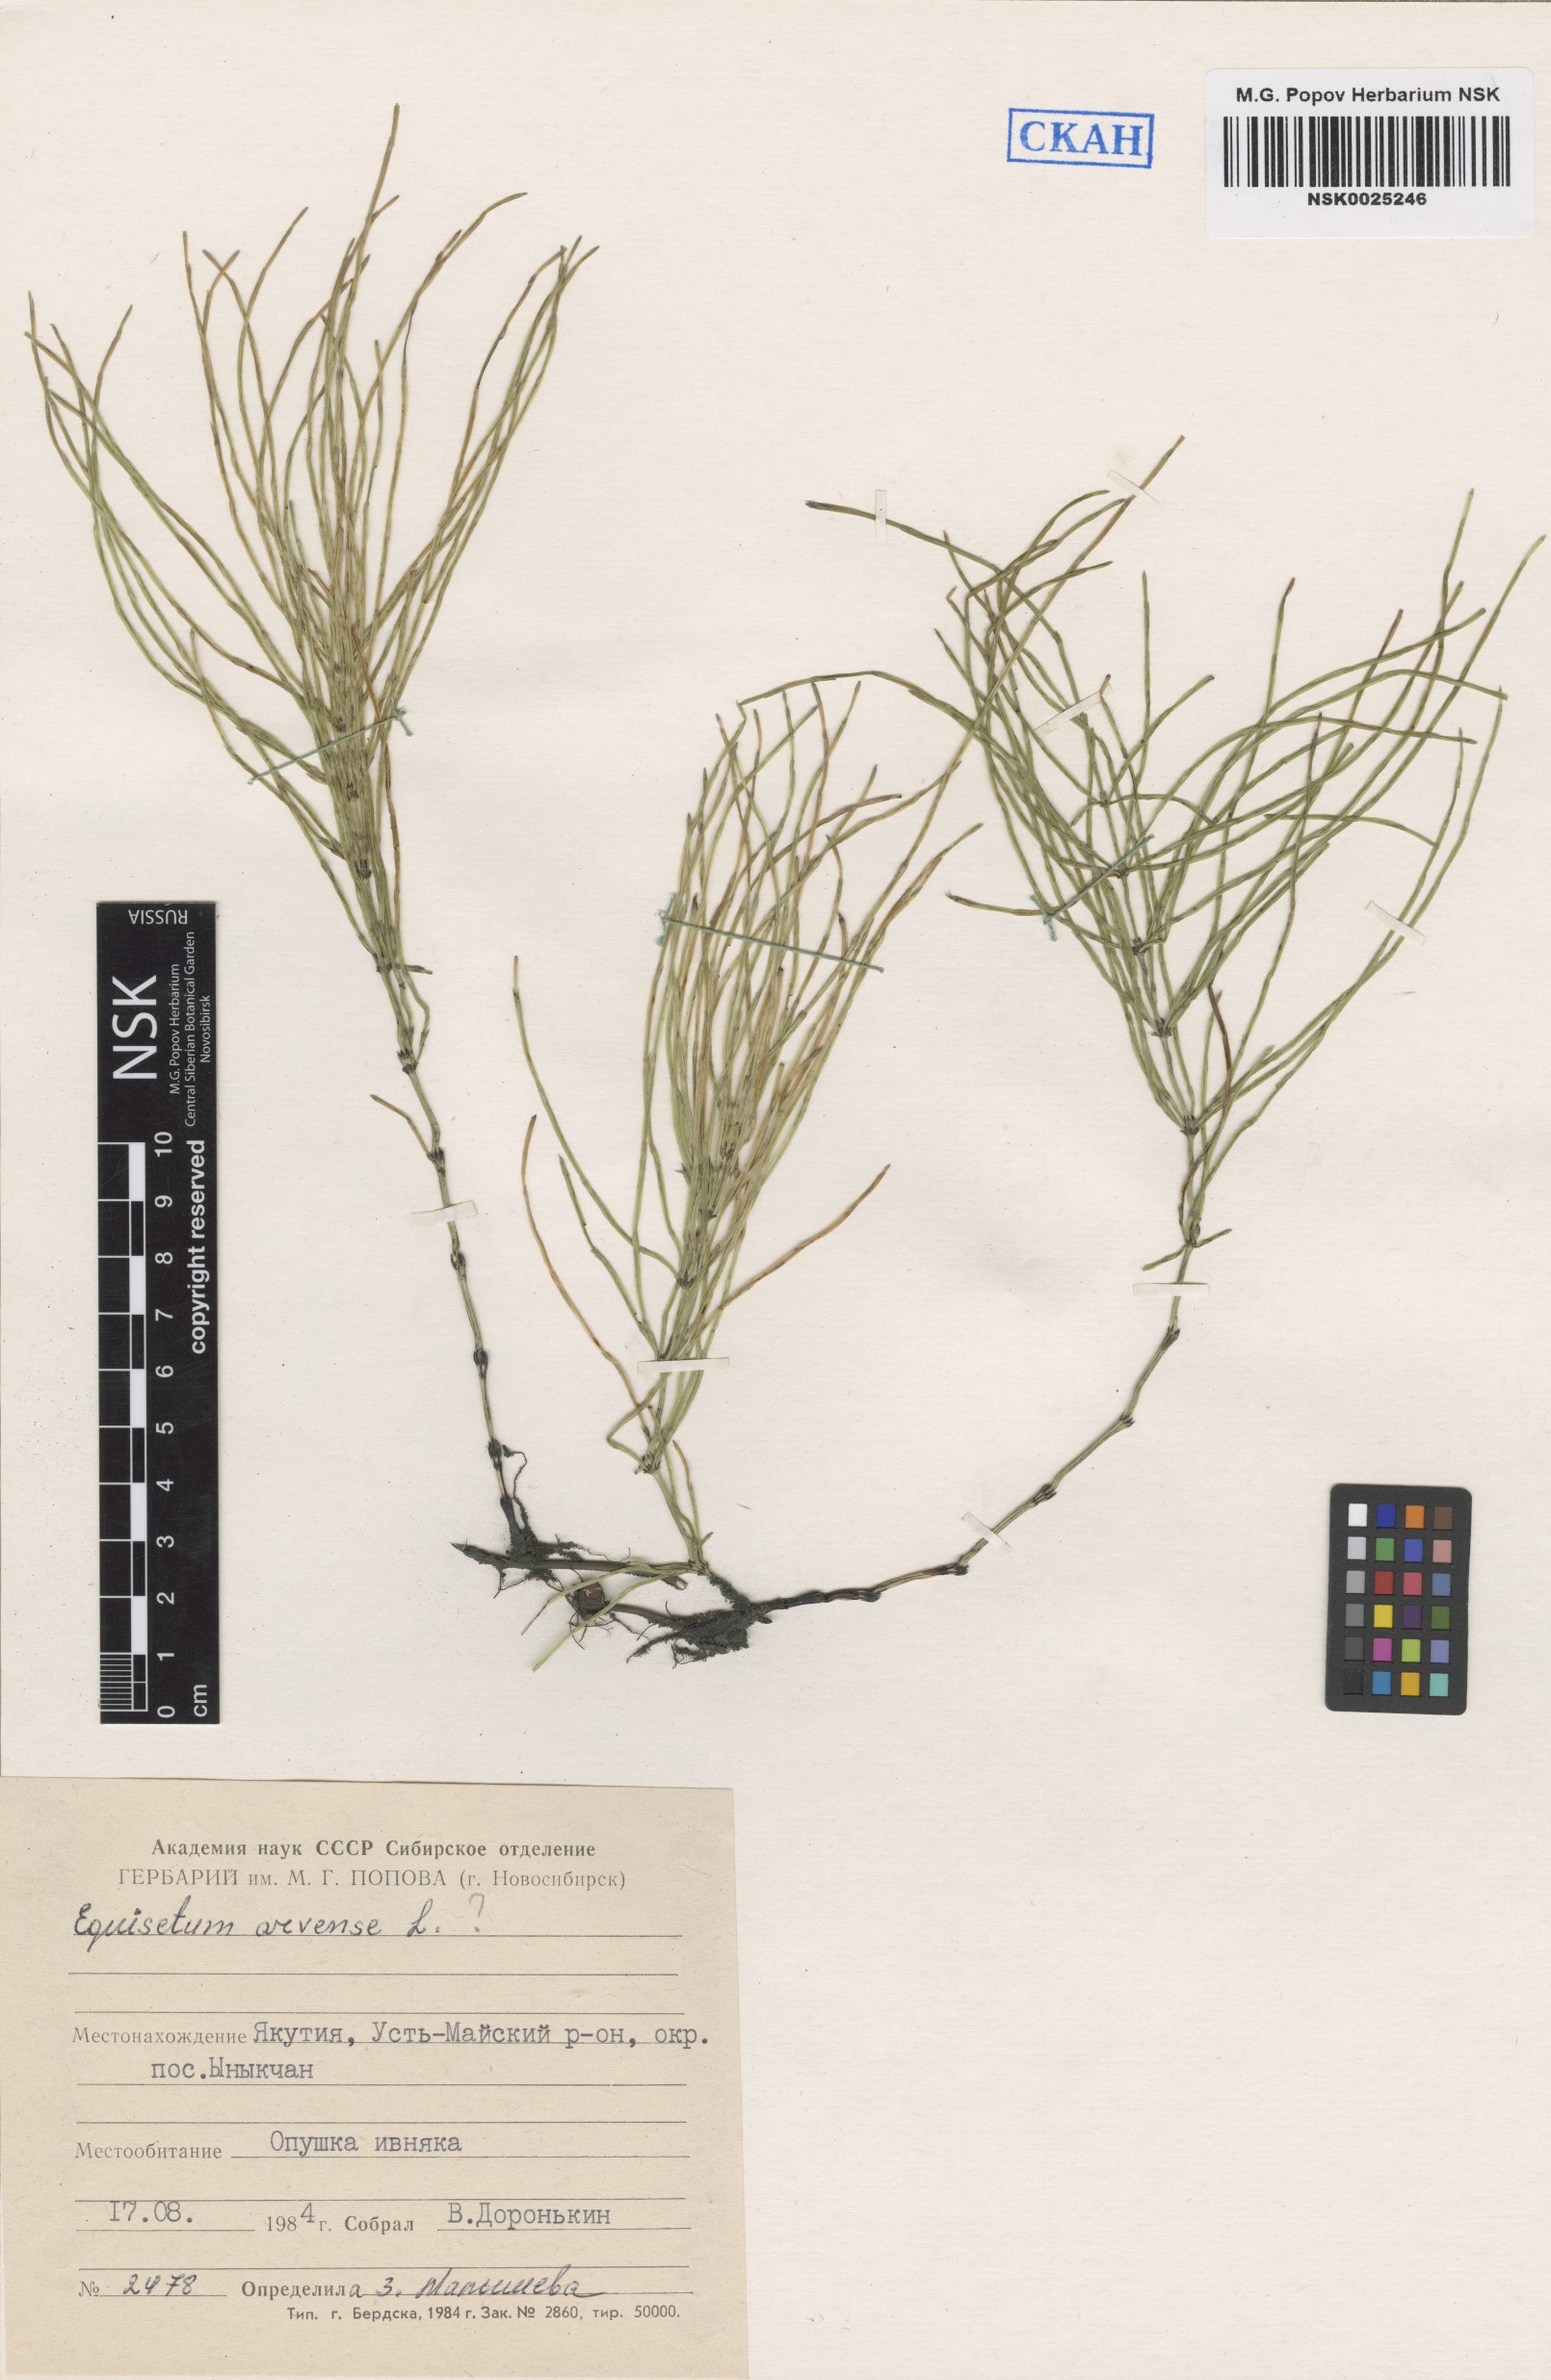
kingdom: Plantae
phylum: Tracheophyta
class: Polypodiopsida
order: Equisetales
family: Equisetaceae
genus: Equisetum
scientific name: Equisetum arvense
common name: Field horsetail
